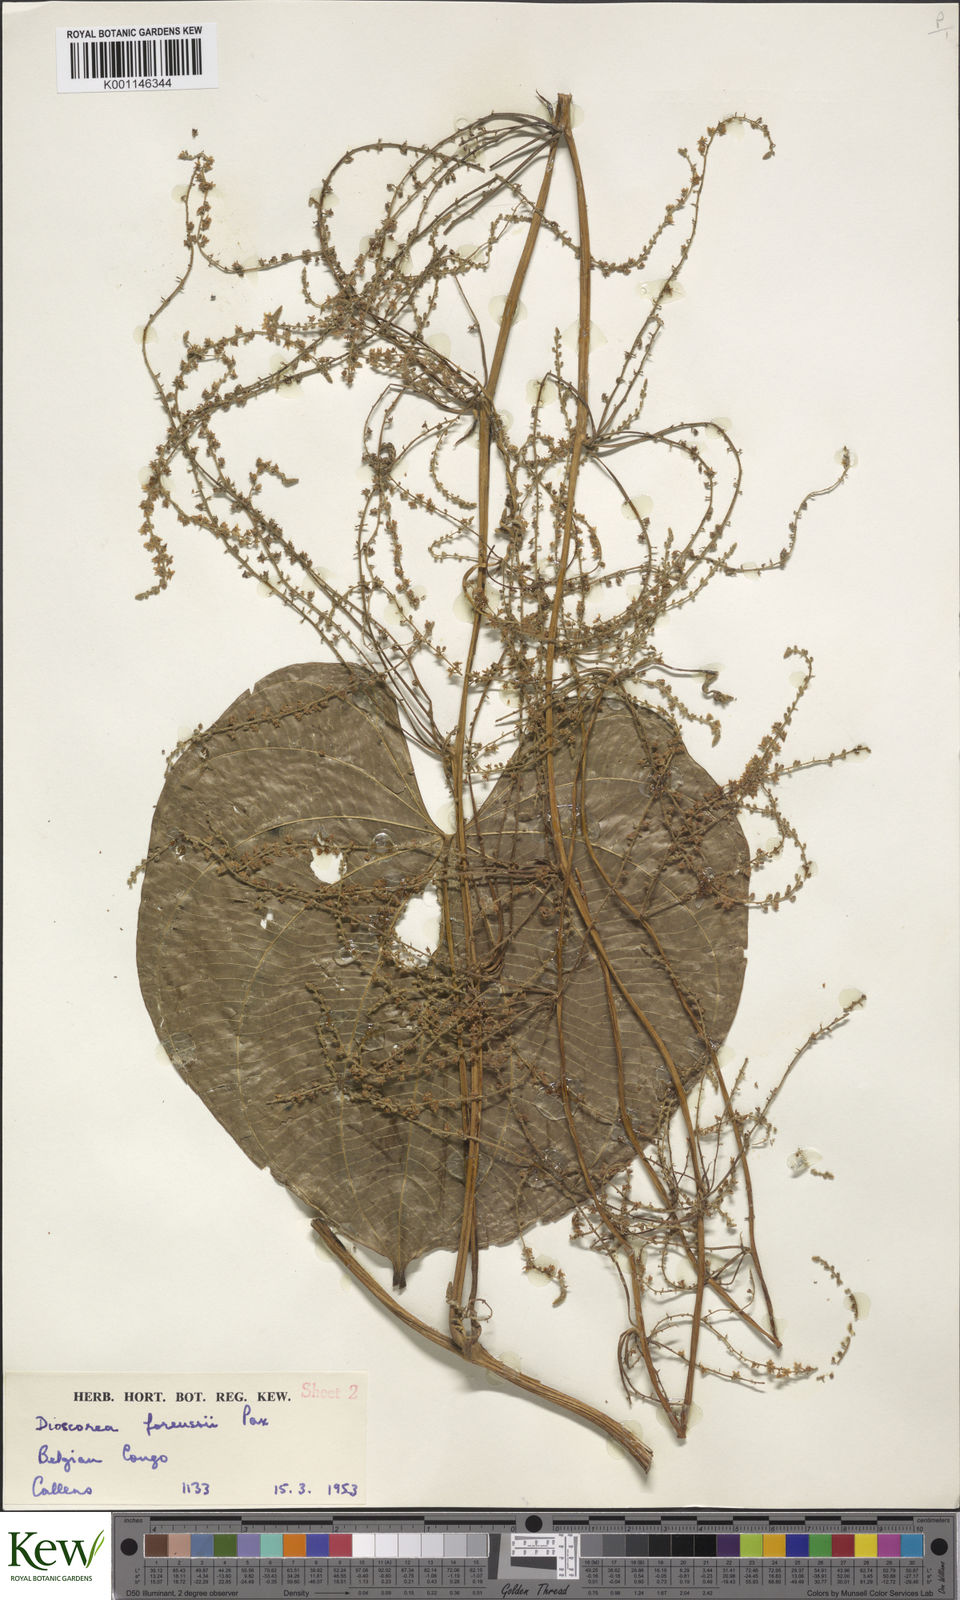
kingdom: Plantae
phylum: Tracheophyta
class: Liliopsida
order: Dioscoreales
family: Dioscoreaceae
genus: Dioscorea
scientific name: Dioscorea preussii
